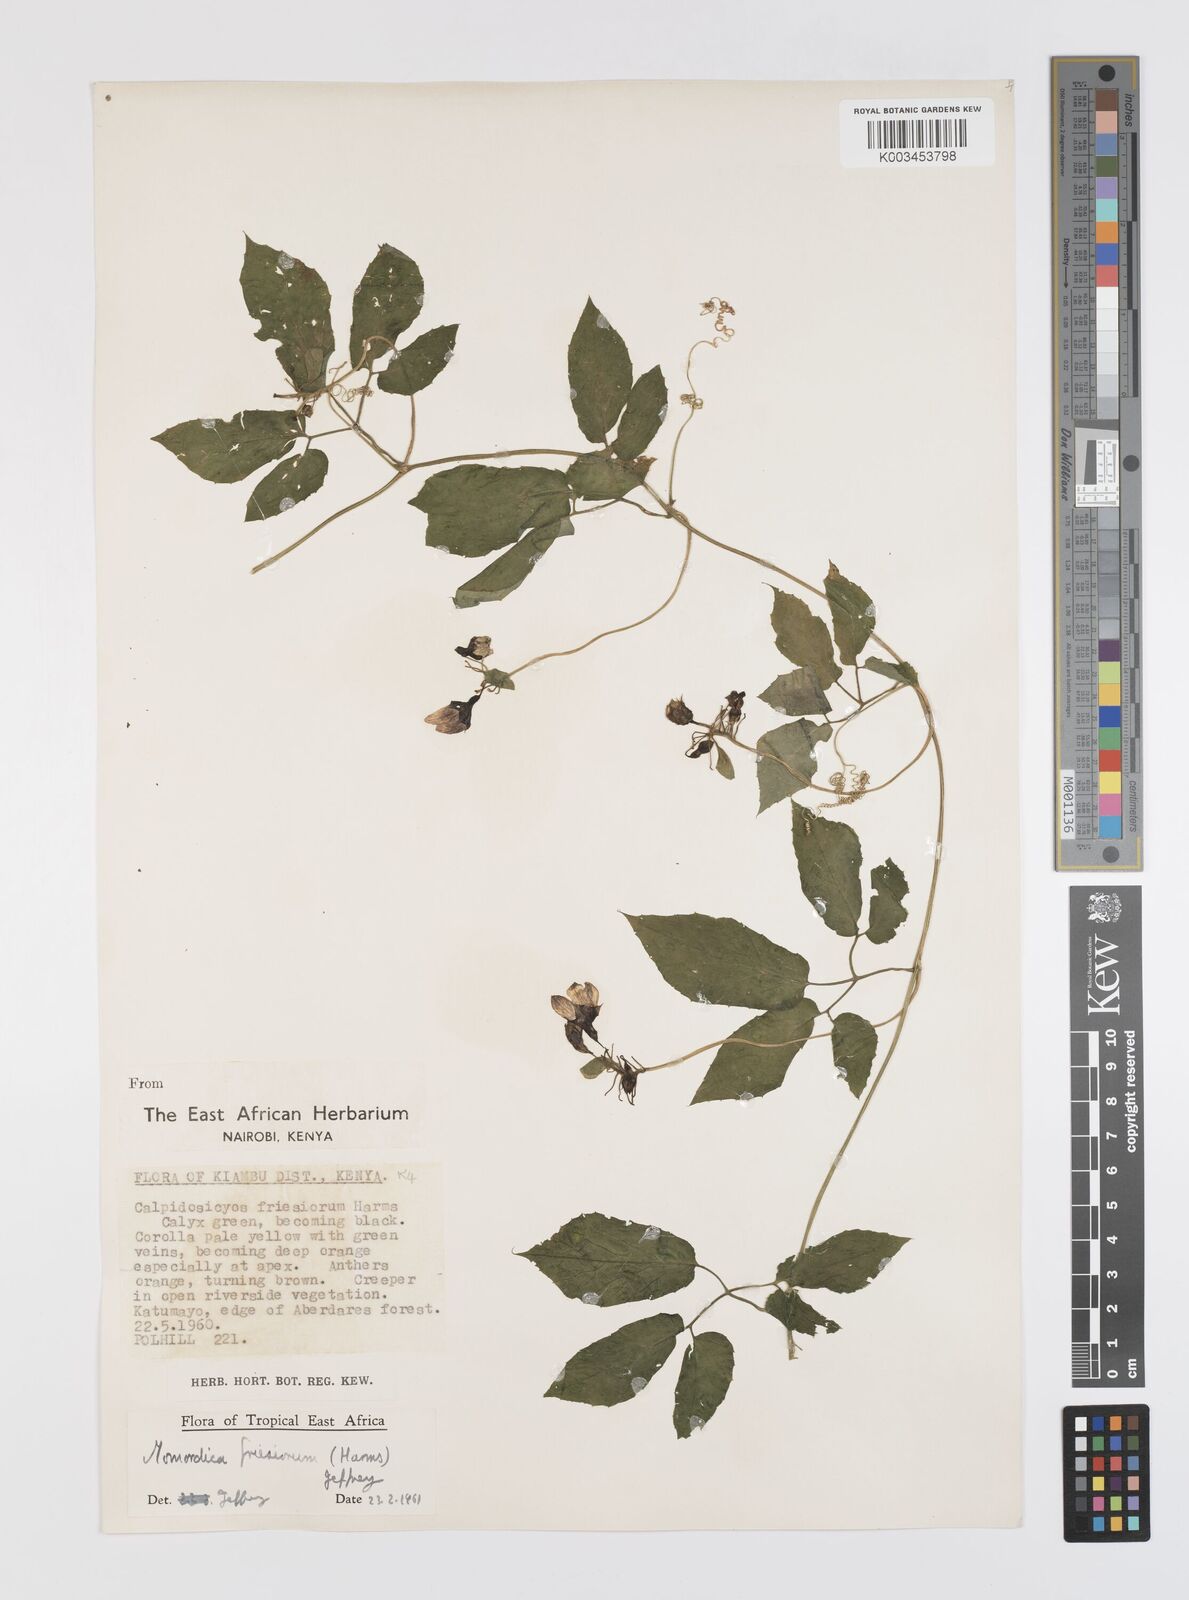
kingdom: Plantae
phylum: Tracheophyta
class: Magnoliopsida
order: Cucurbitales
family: Cucurbitaceae
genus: Momordica
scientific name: Momordica friesiorum
